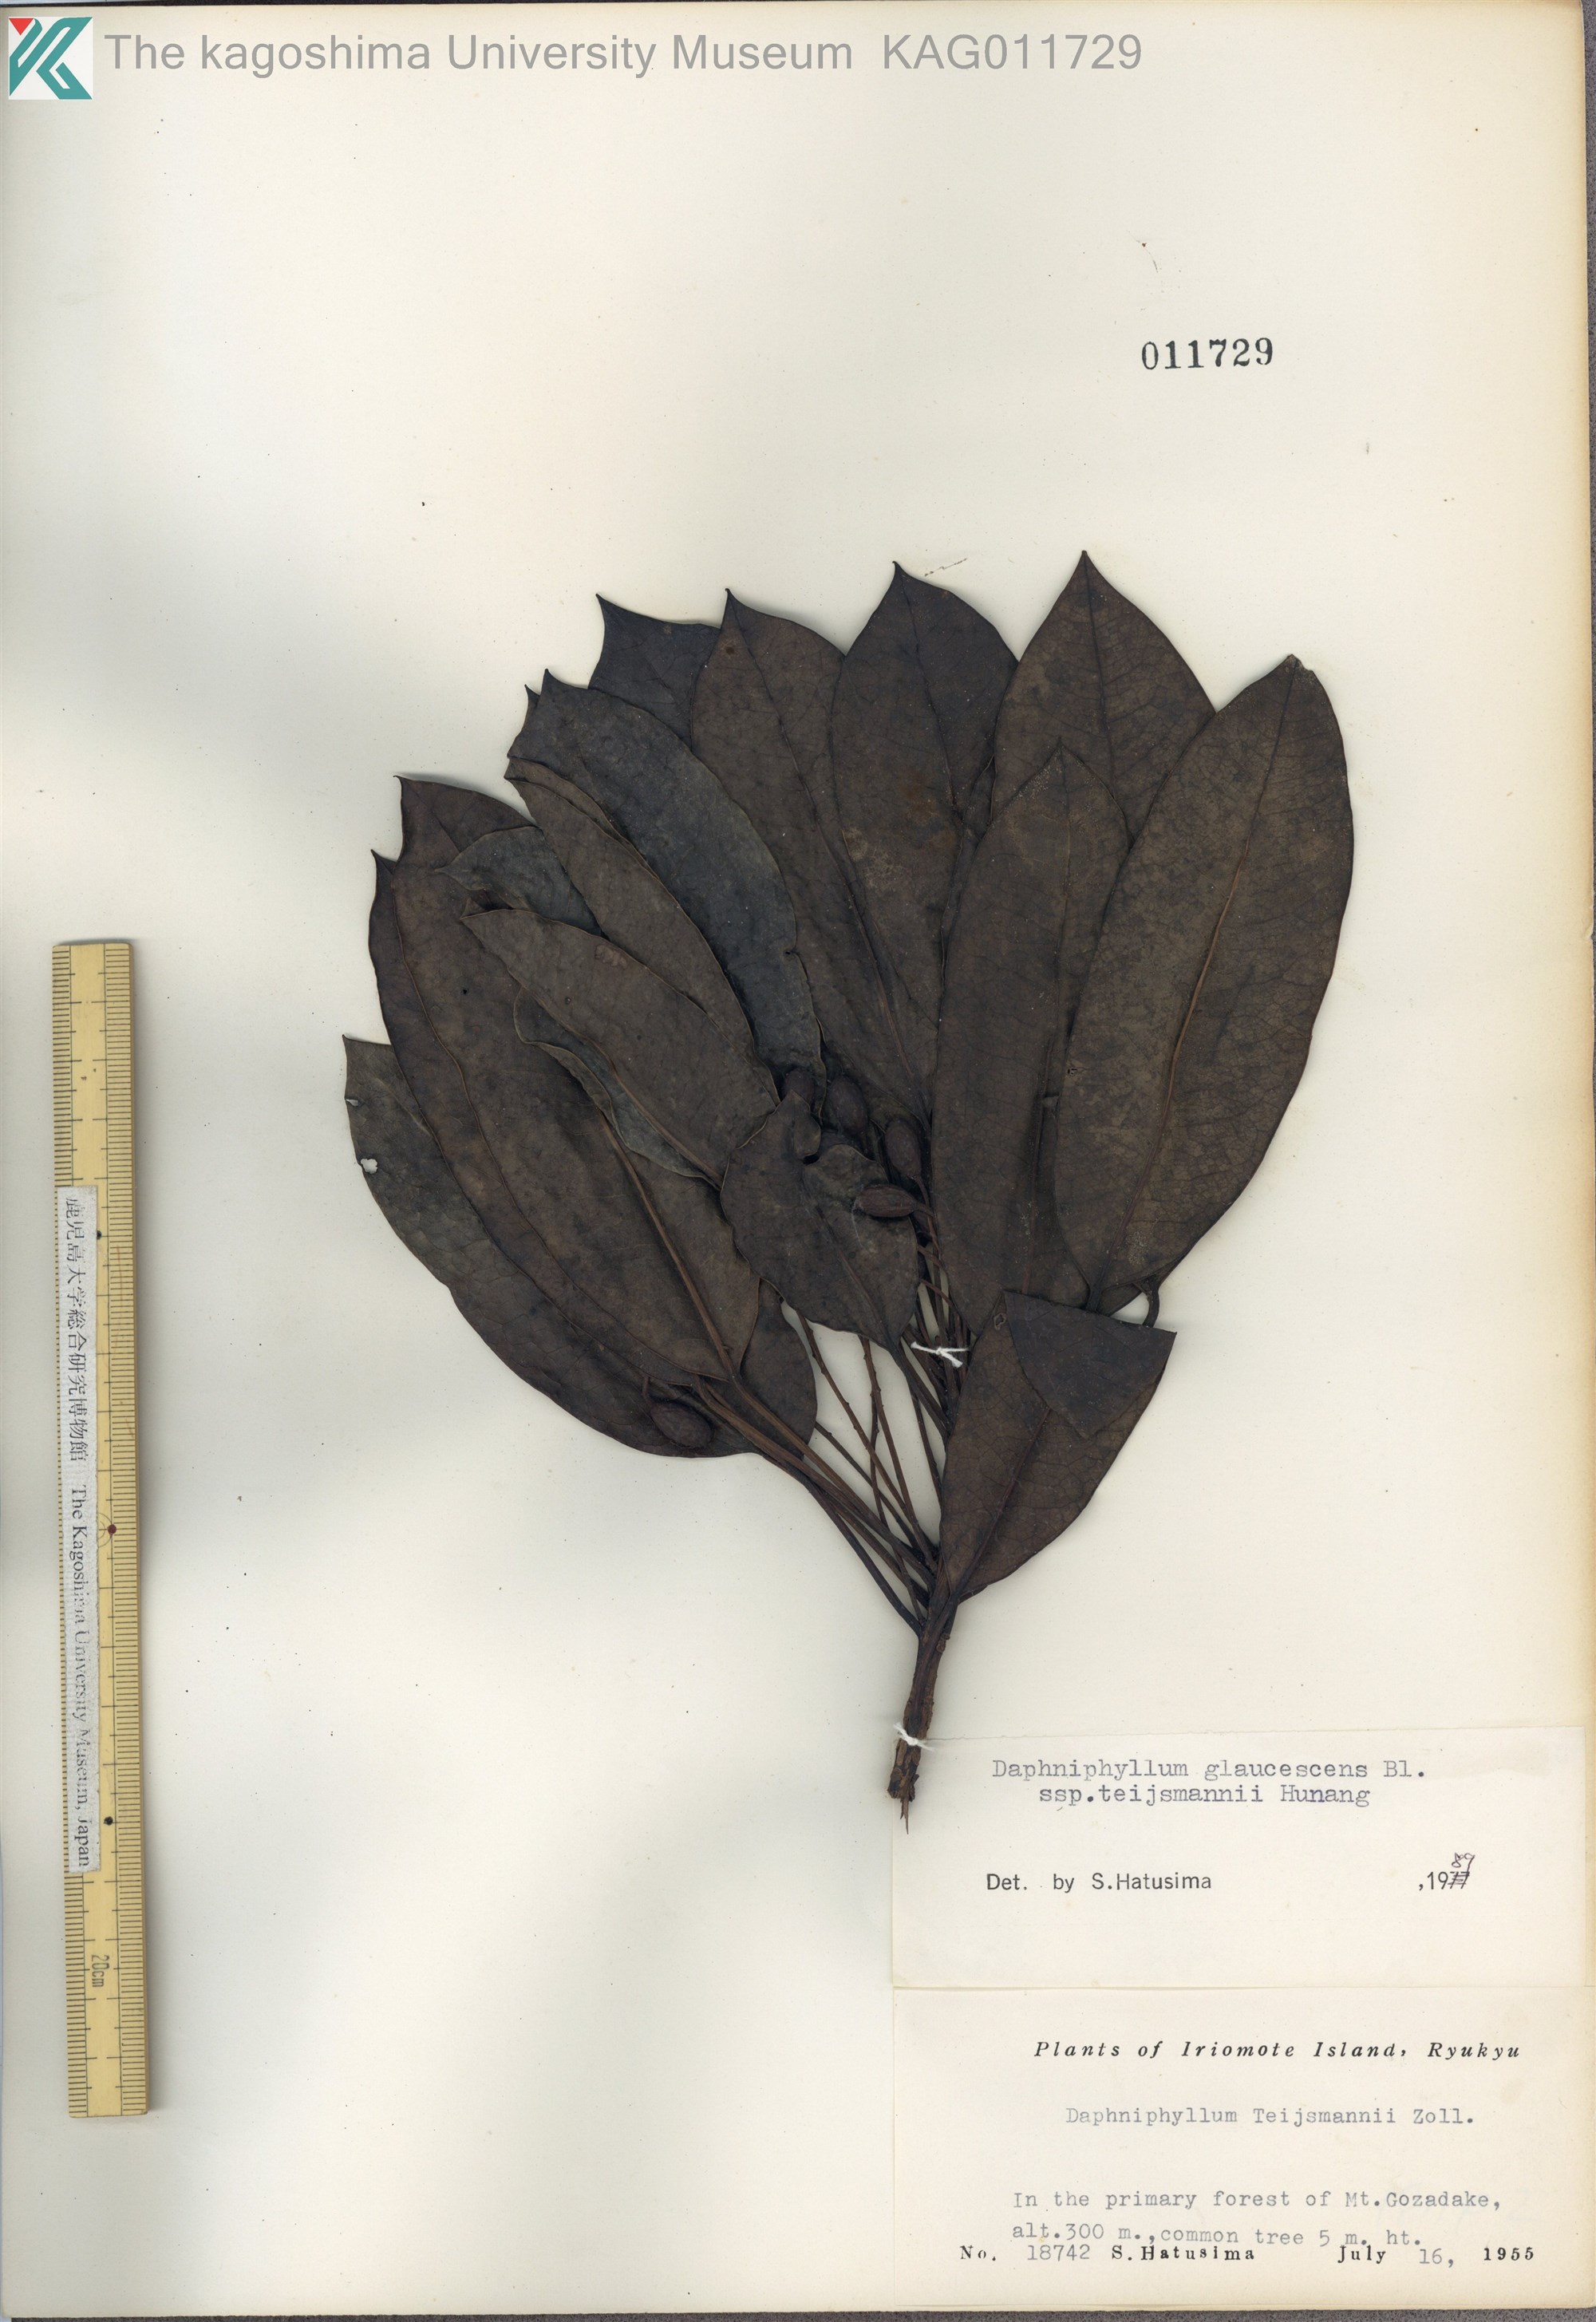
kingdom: Plantae
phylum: Tracheophyta
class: Magnoliopsida
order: Saxifragales
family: Daphniphyllaceae
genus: Daphniphyllum
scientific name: Daphniphyllum teijsmannii
